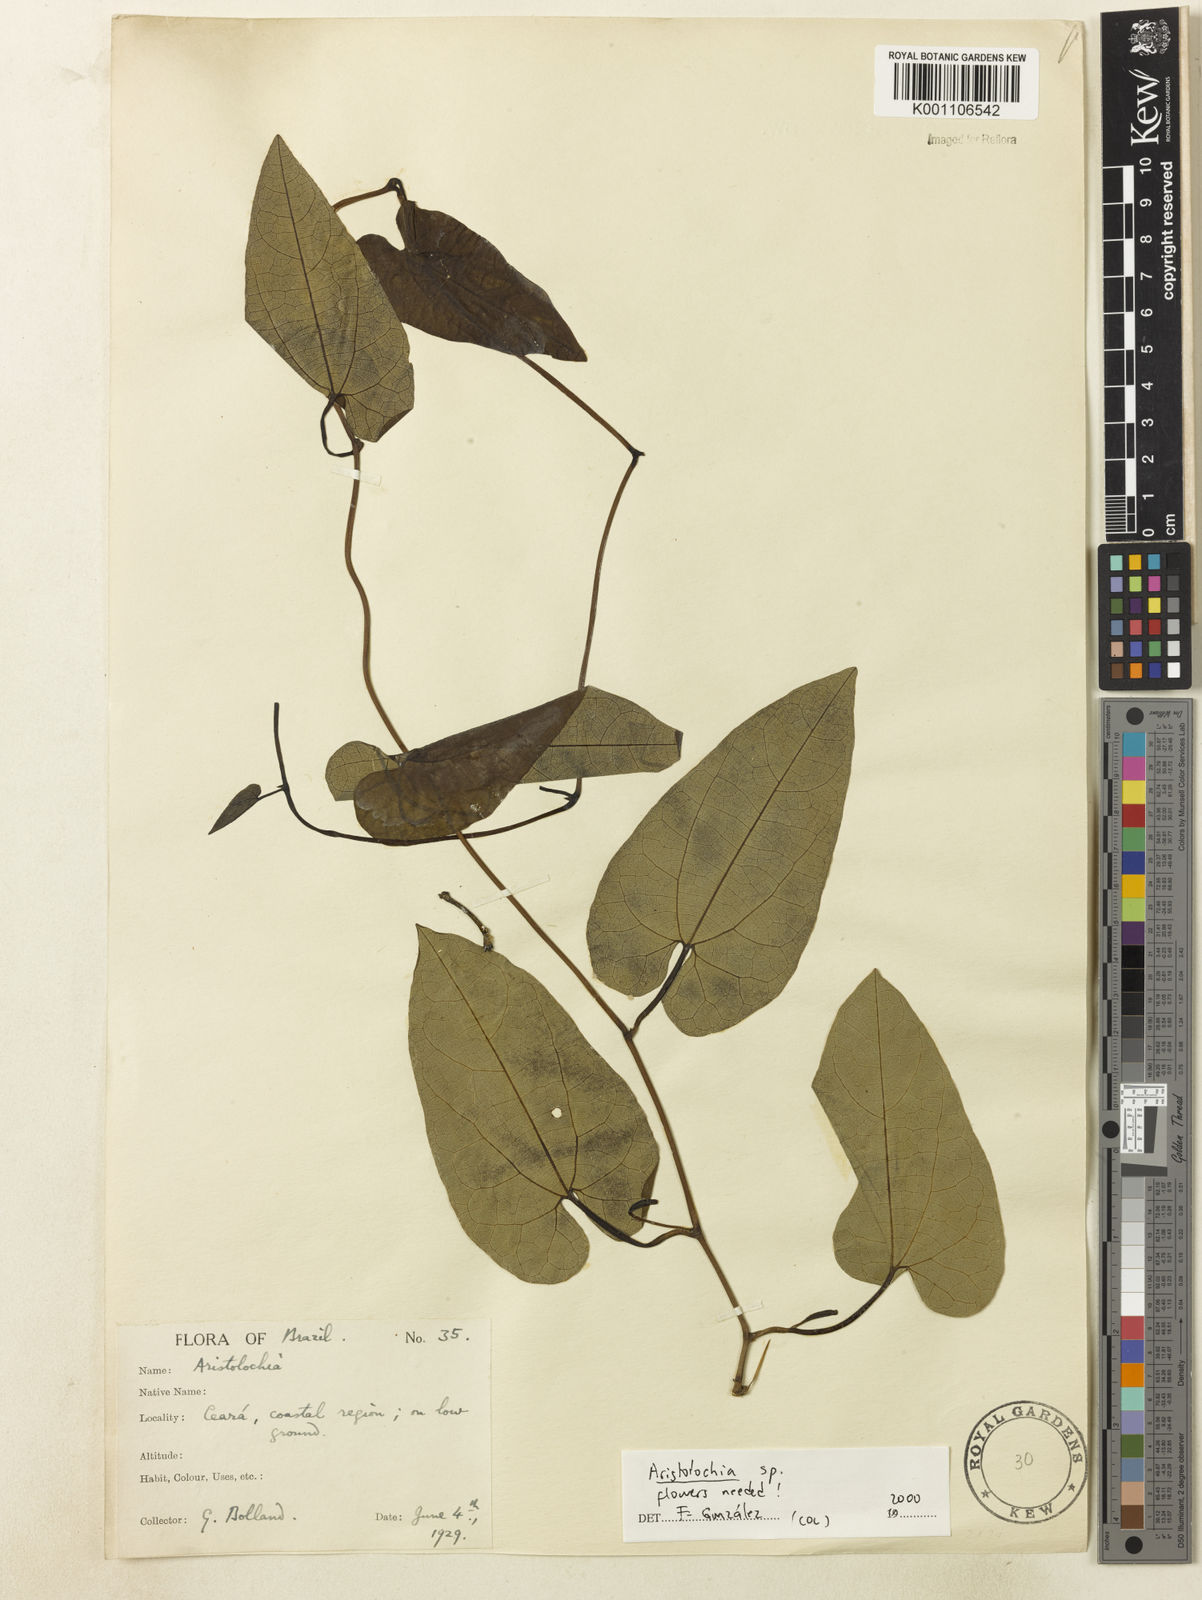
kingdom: Plantae
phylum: Tracheophyta
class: Magnoliopsida
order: Piperales
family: Aristolochiaceae
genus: Aristolochia
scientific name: Aristolochia
